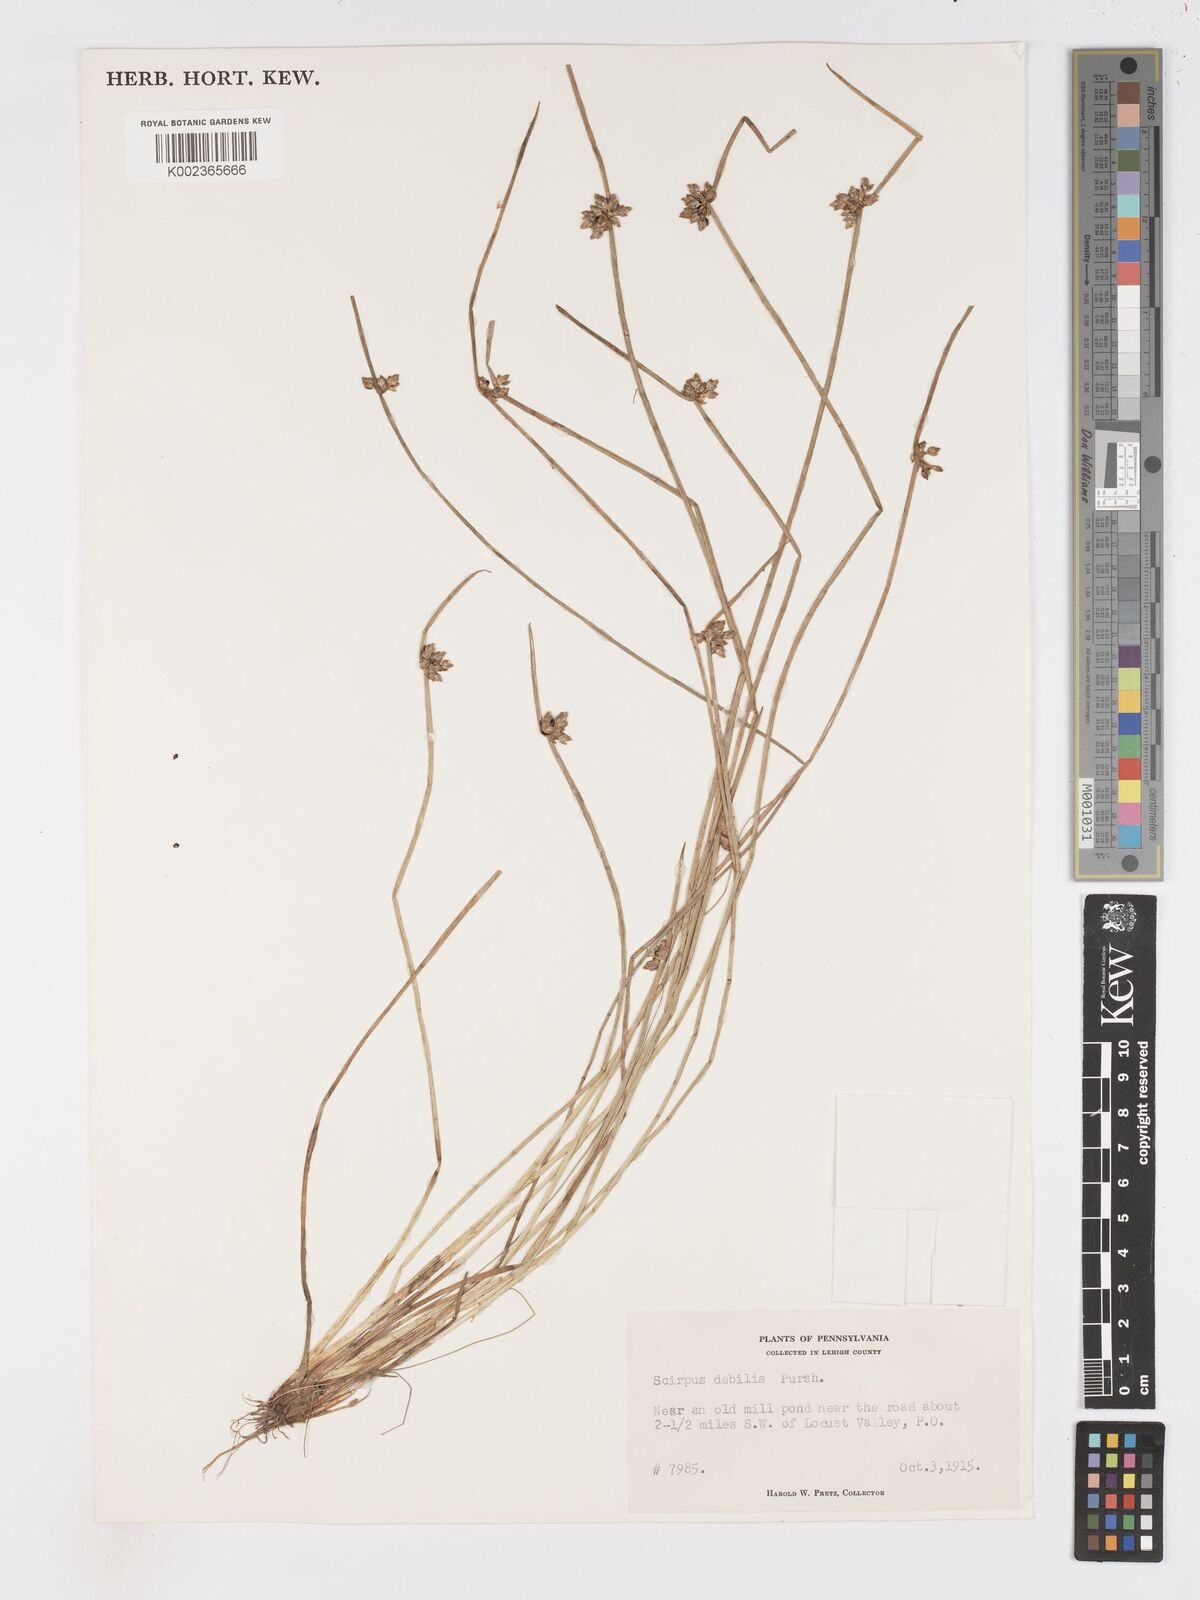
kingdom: Plantae
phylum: Tracheophyta
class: Liliopsida
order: Poales
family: Cyperaceae
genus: Schoenoplectiella
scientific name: Schoenoplectiella purshiana
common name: Weak-stalked bulrush
